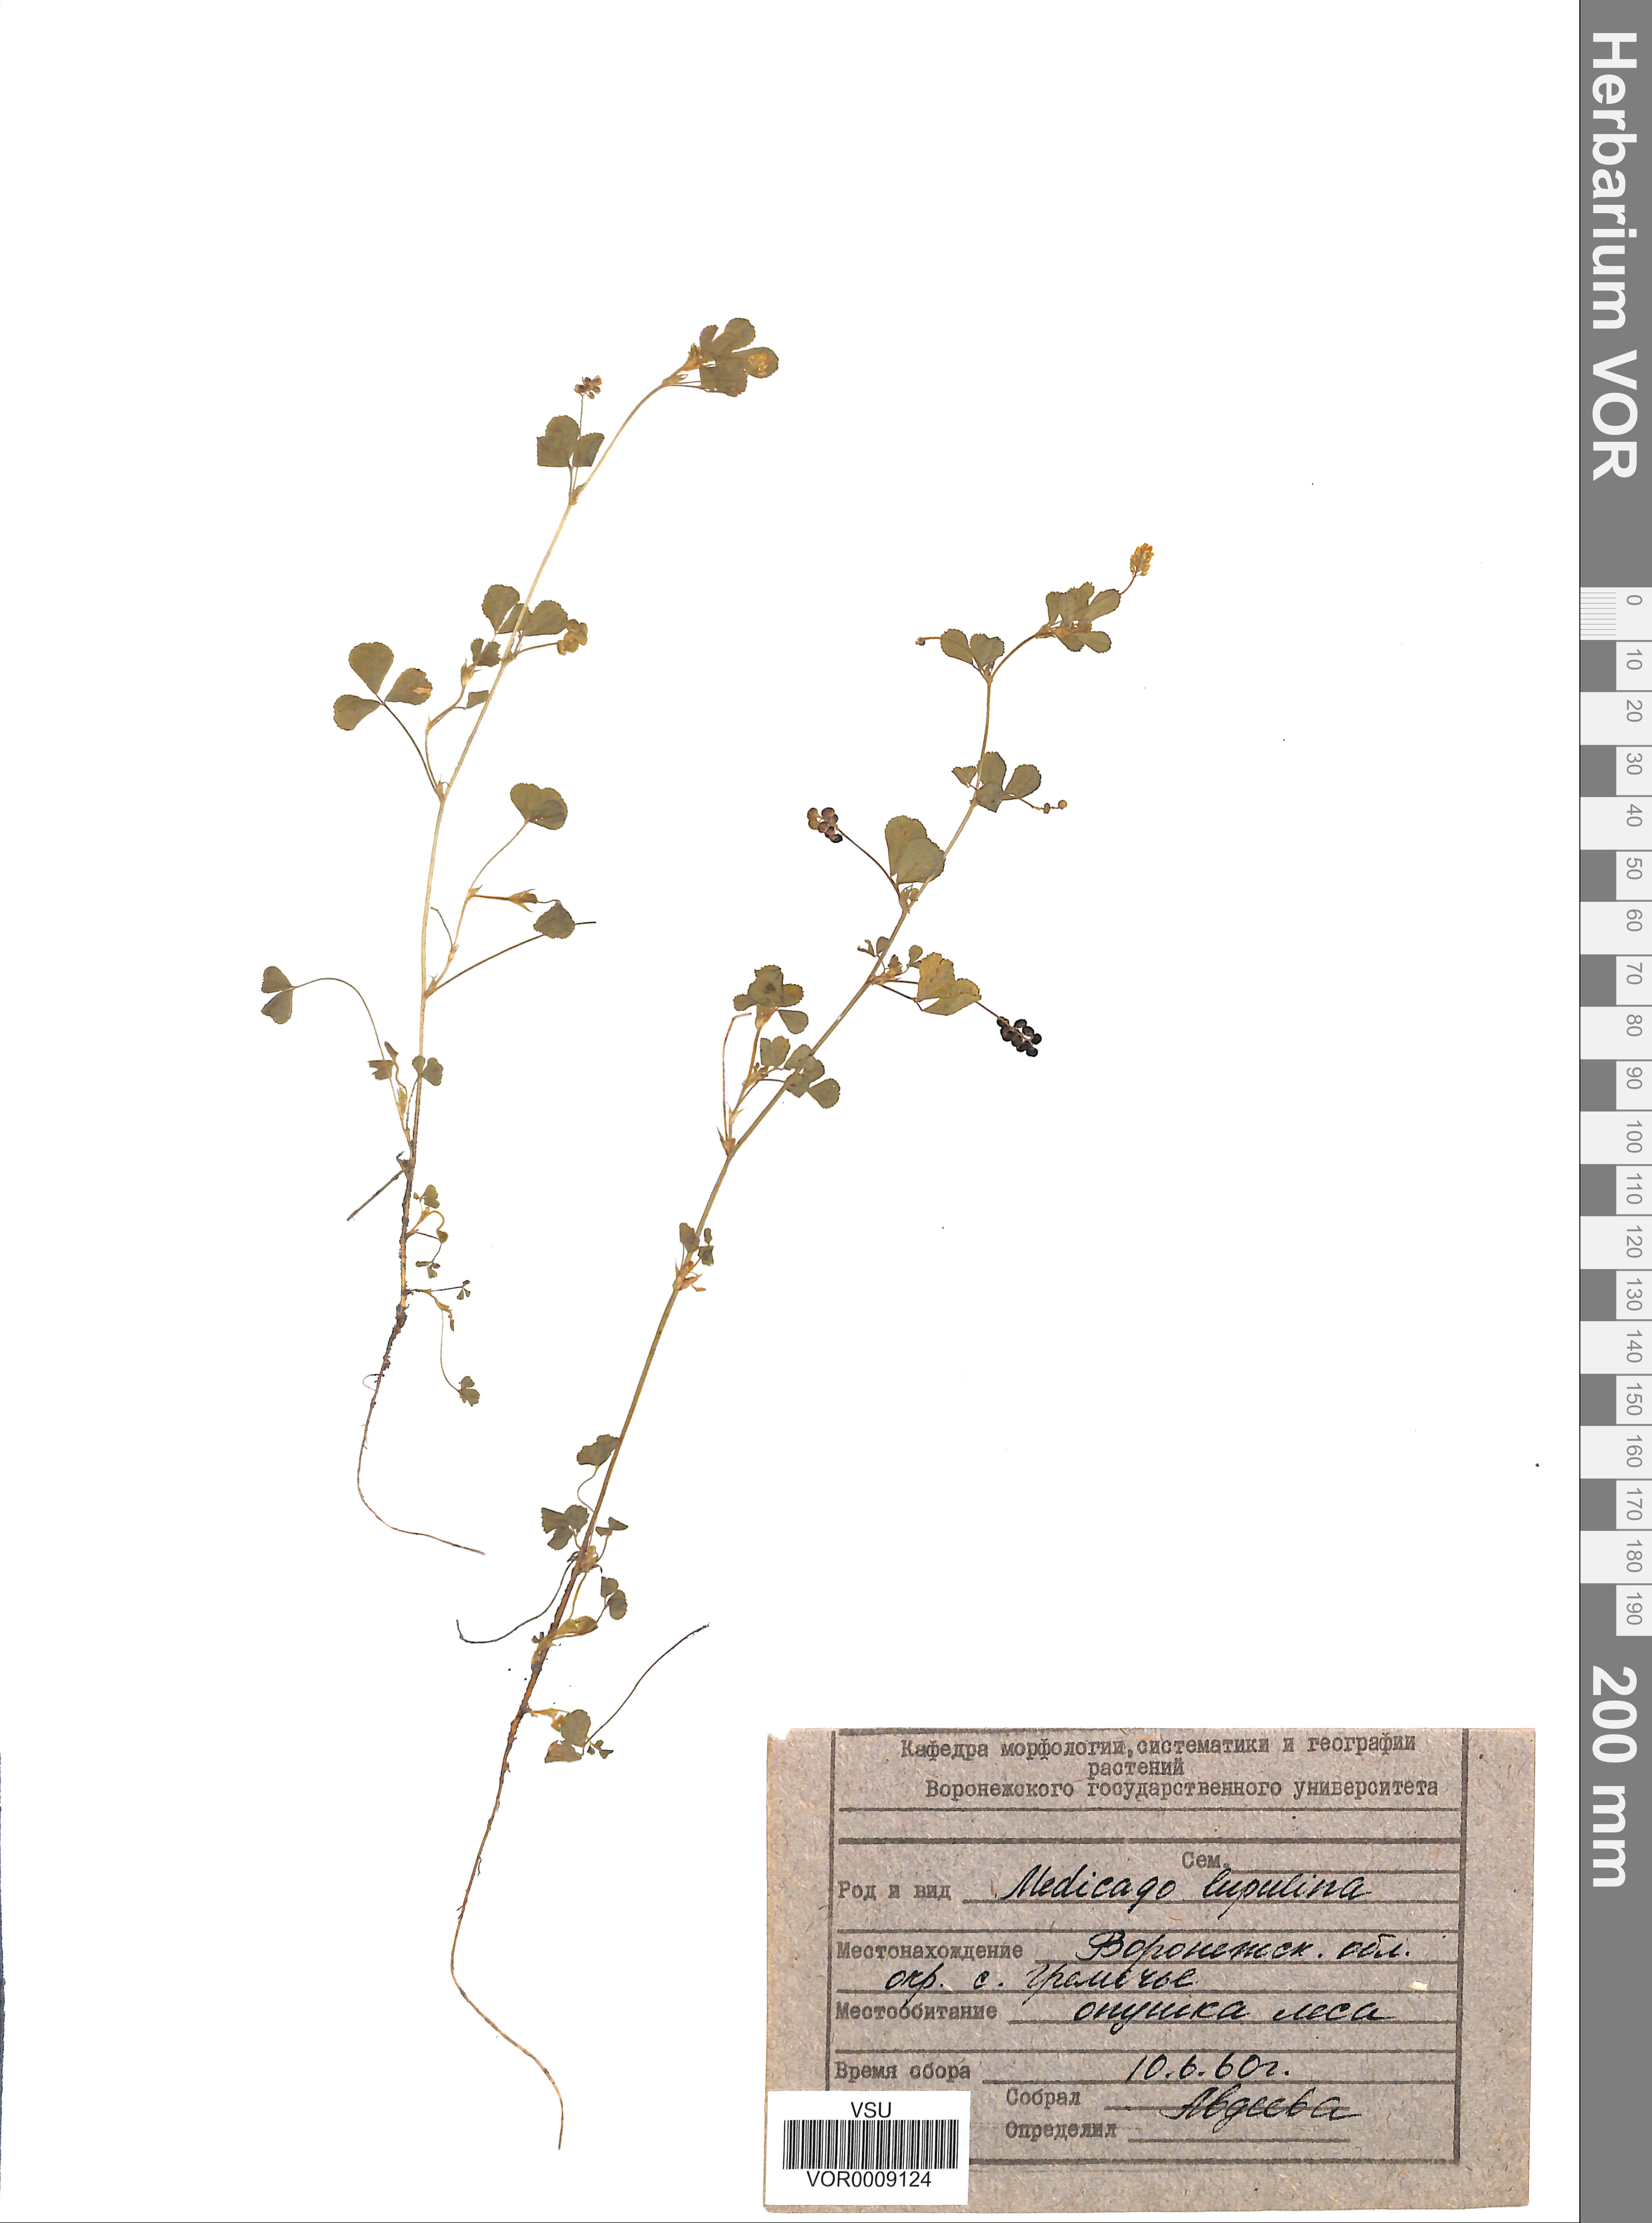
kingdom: Plantae
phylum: Tracheophyta
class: Magnoliopsida
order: Fabales
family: Fabaceae
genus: Medicago
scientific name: Medicago lupulina
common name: Black medick
